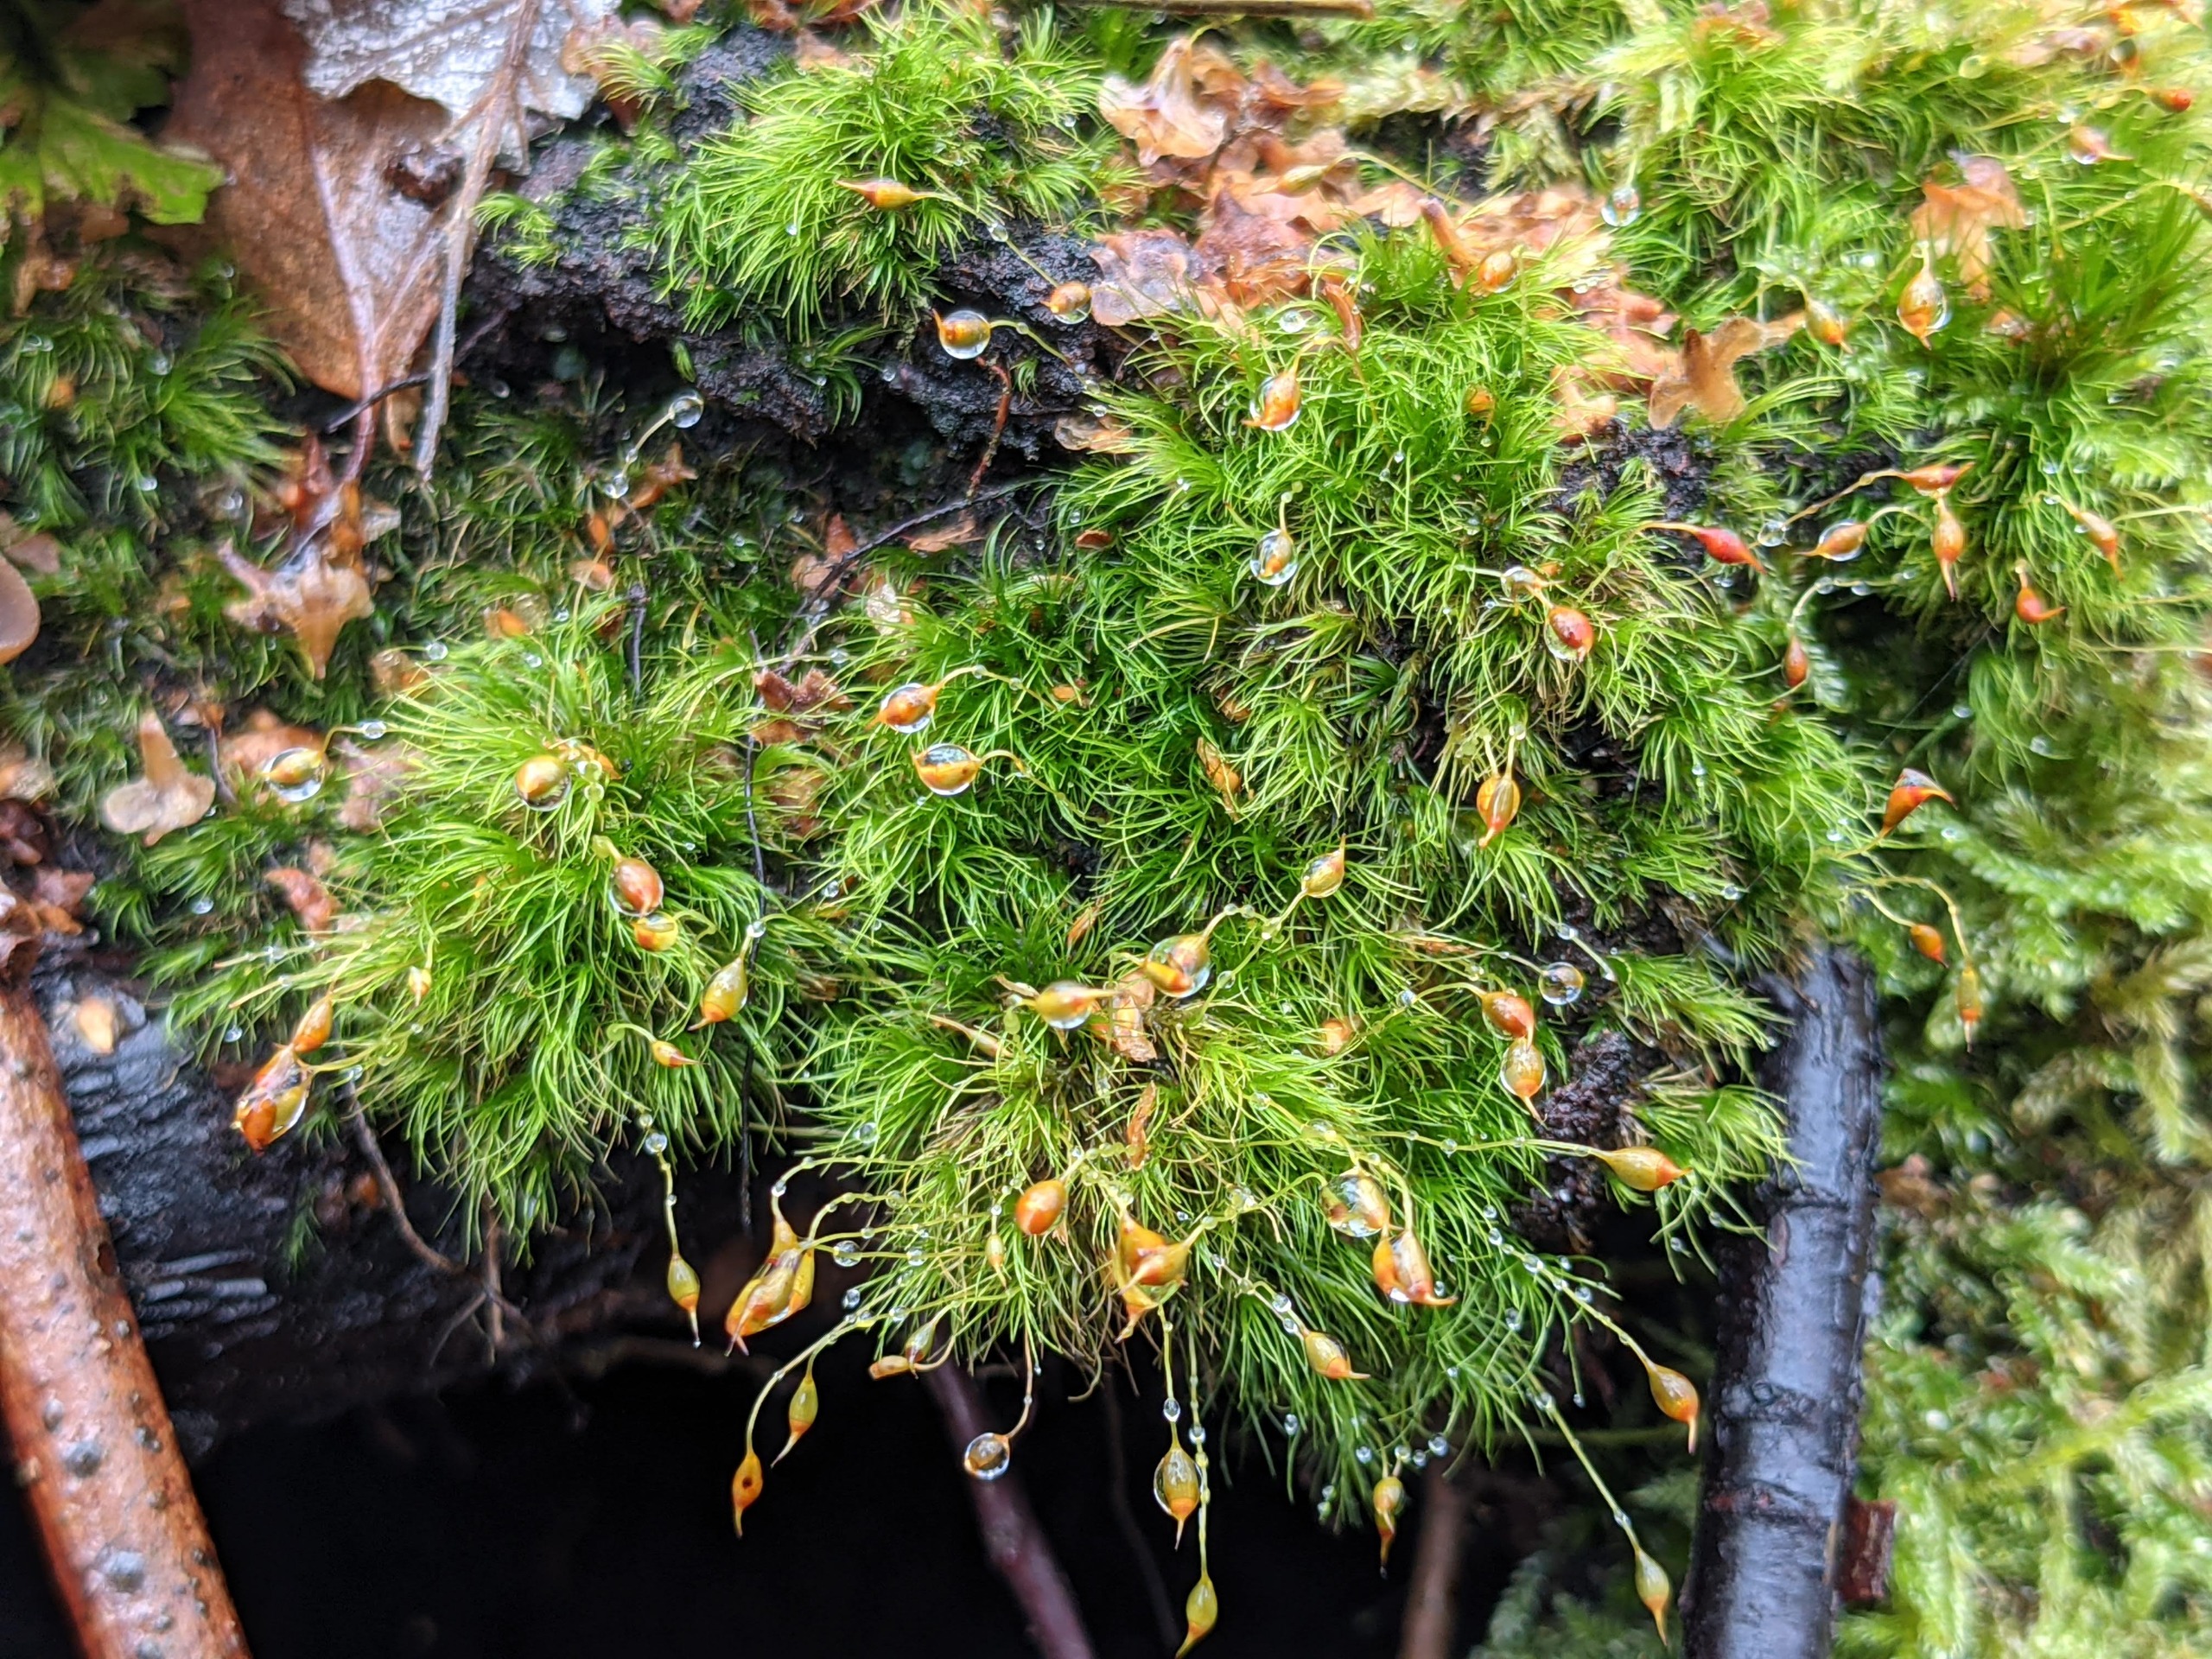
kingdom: Plantae
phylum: Bryophyta
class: Bryopsida
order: Dicranales
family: Dicranellaceae
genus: Dicranella
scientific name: Dicranella heteromalla
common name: Almindelig fløjlsmos
